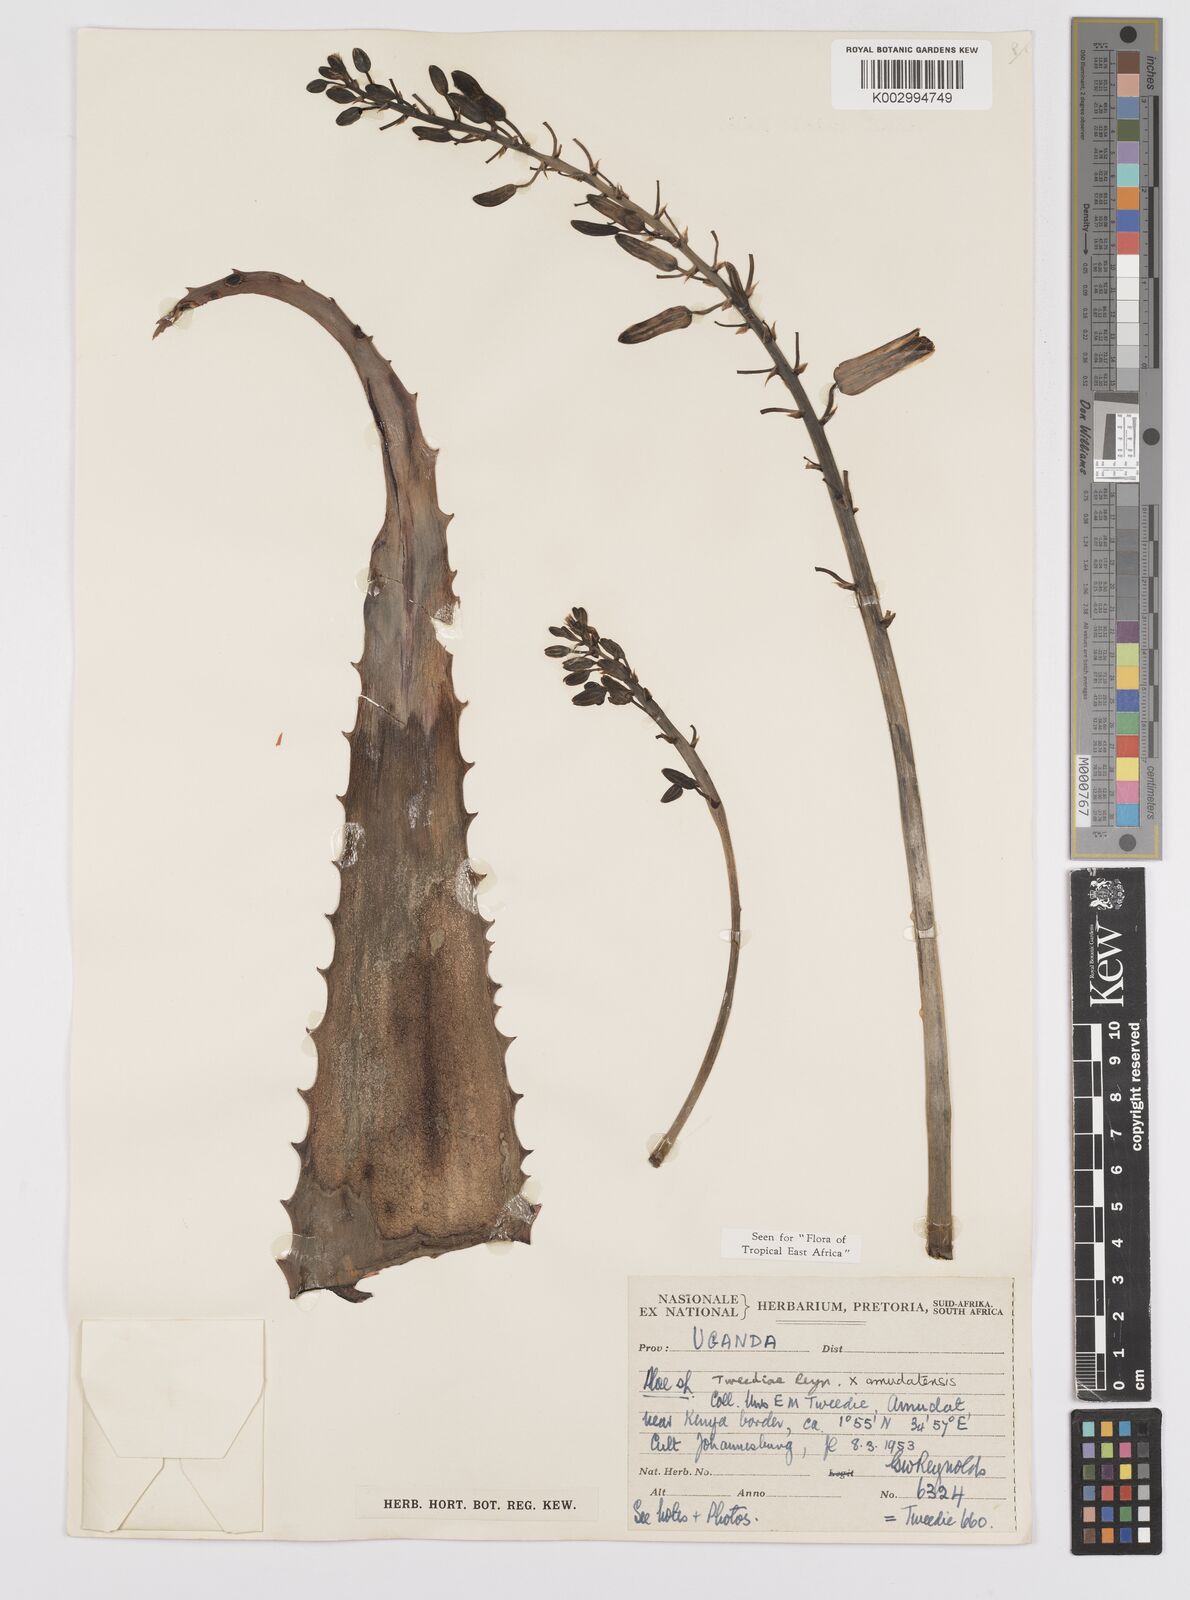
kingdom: Plantae
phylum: Tracheophyta
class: Liliopsida
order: Asparagales
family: Asphodelaceae
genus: Aloe
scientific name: Aloe secundiflora
